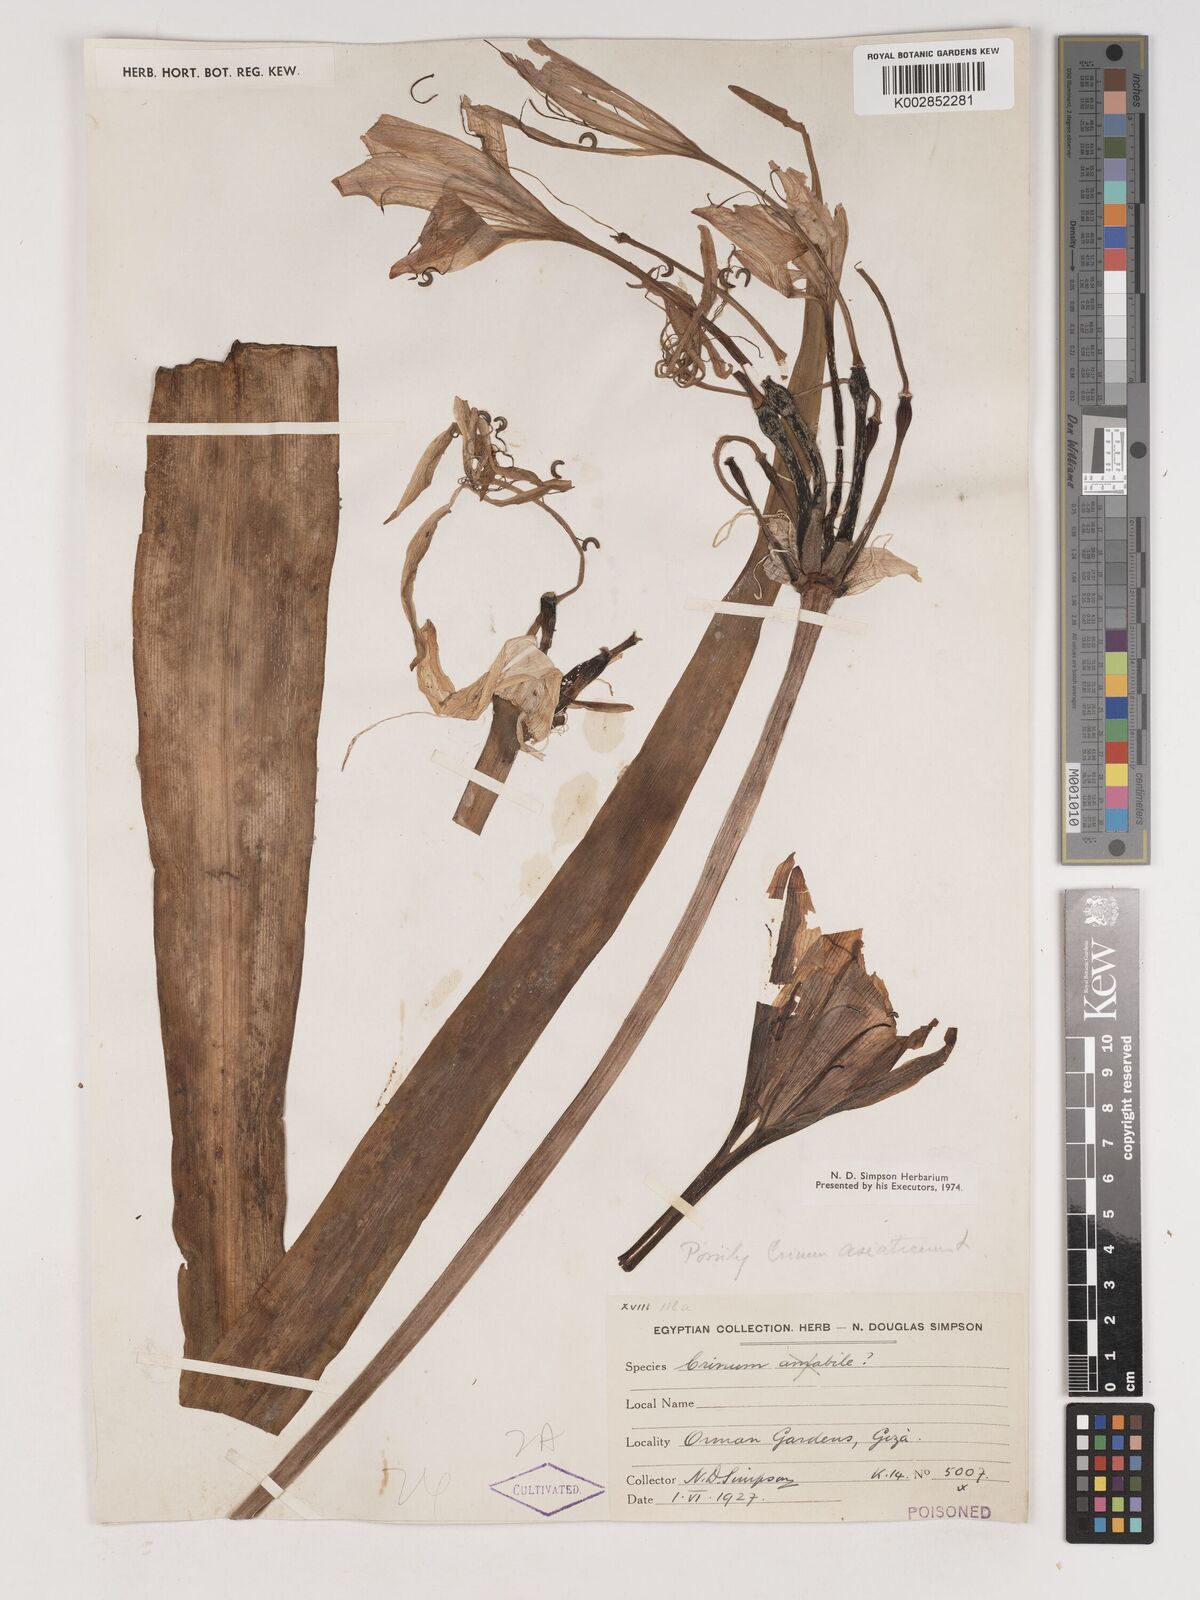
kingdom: Plantae
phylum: Tracheophyta
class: Liliopsida
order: Asparagales
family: Amaryllidaceae
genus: Crinum
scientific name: Crinum
